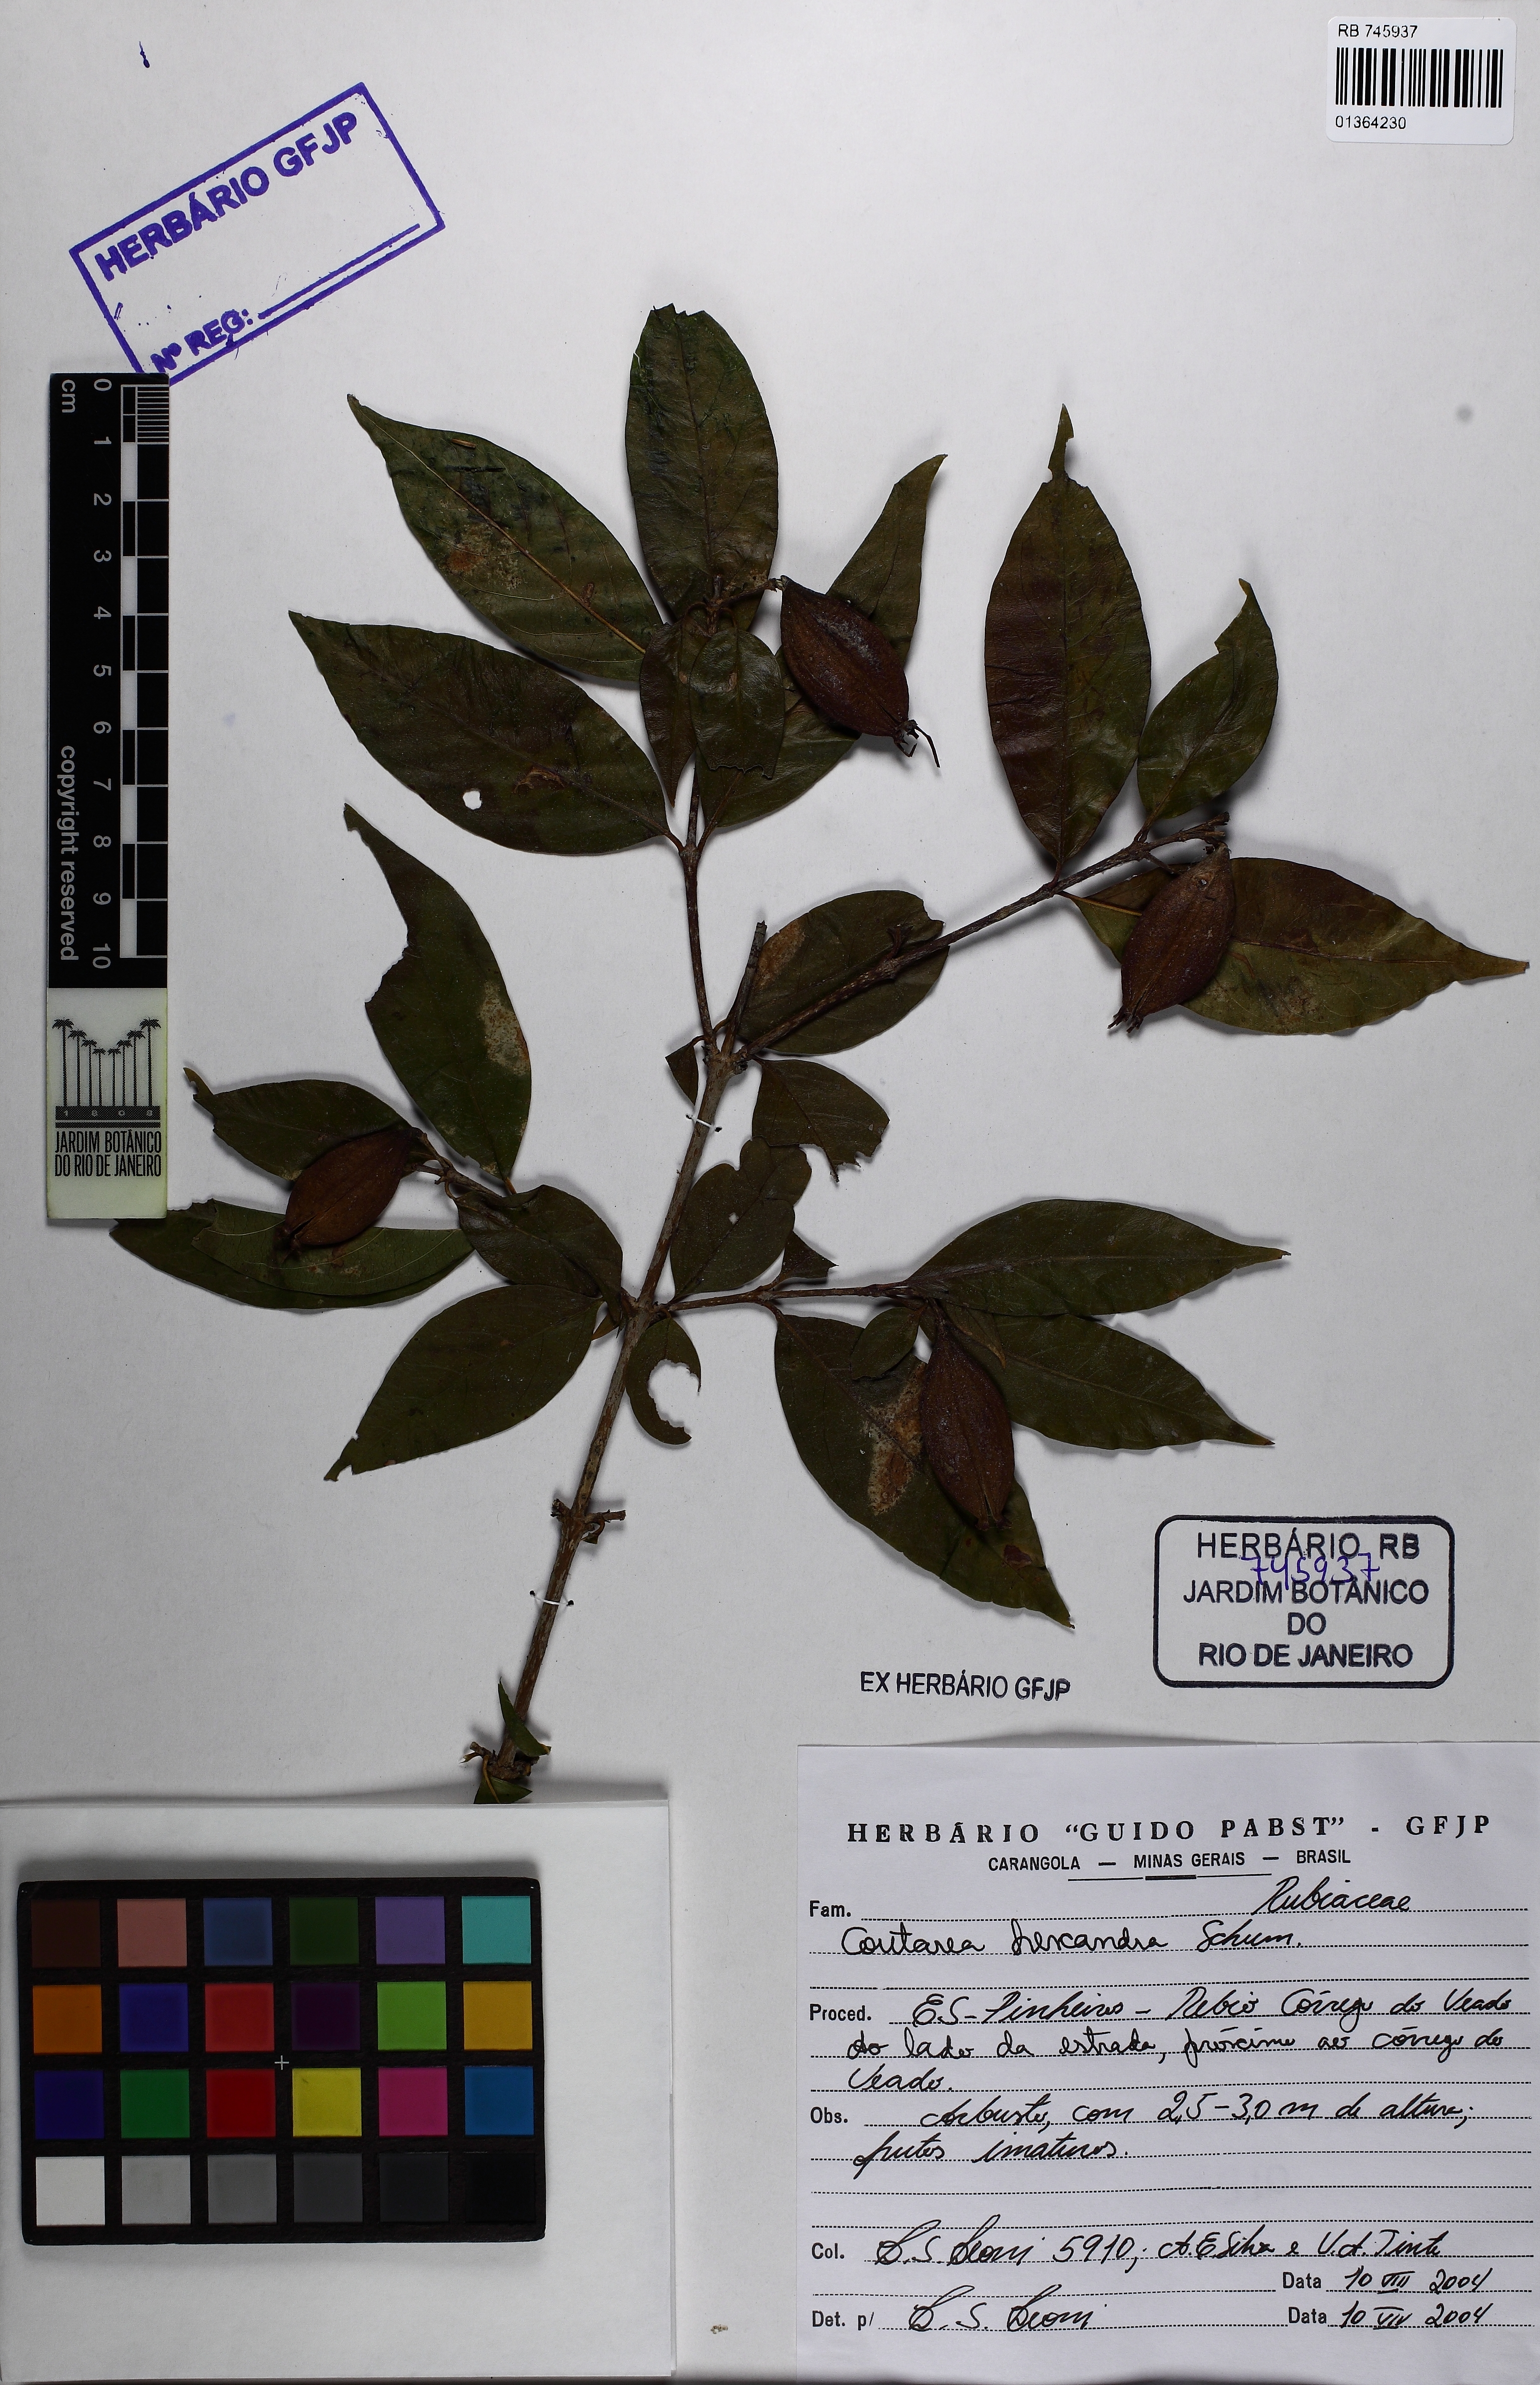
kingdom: Plantae
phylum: Tracheophyta
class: Magnoliopsida
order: Gentianales
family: Rubiaceae
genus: Coutarea
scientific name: Coutarea hexandra
